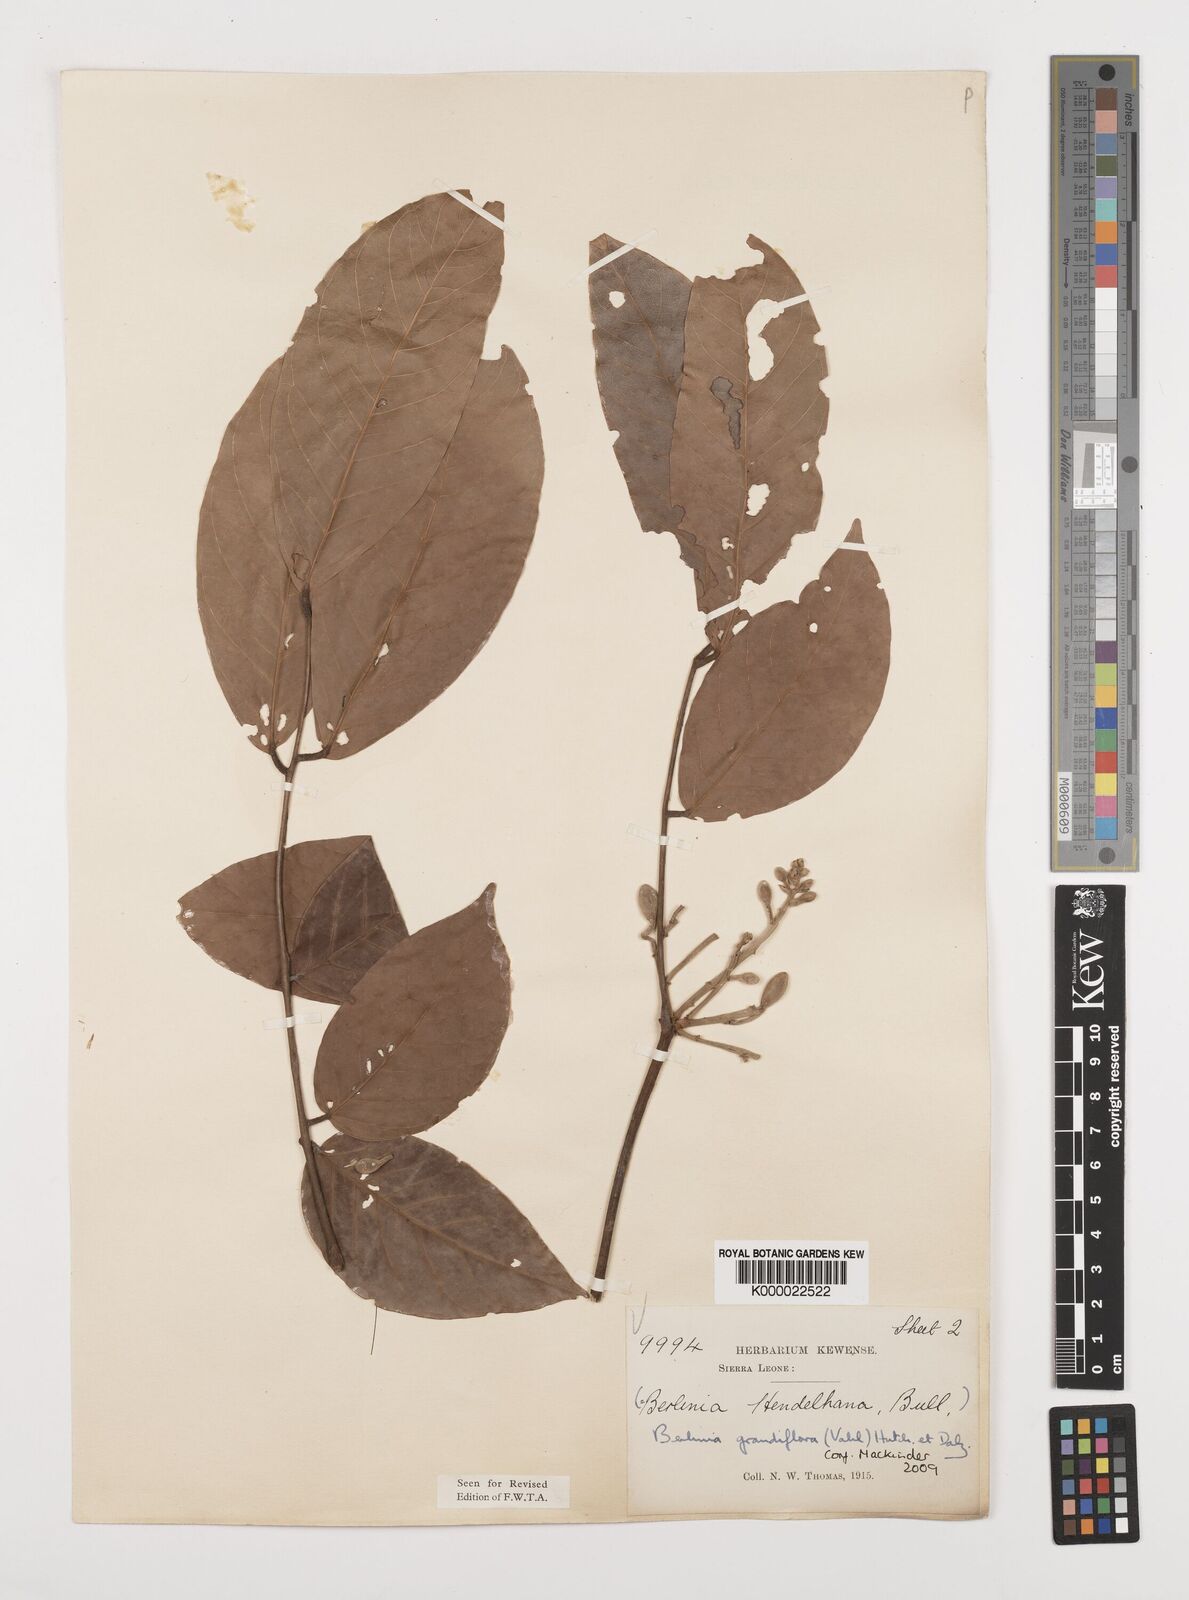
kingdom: Plantae
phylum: Tracheophyta
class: Magnoliopsida
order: Fabales
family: Fabaceae
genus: Berlinia
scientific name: Berlinia grandiflora
